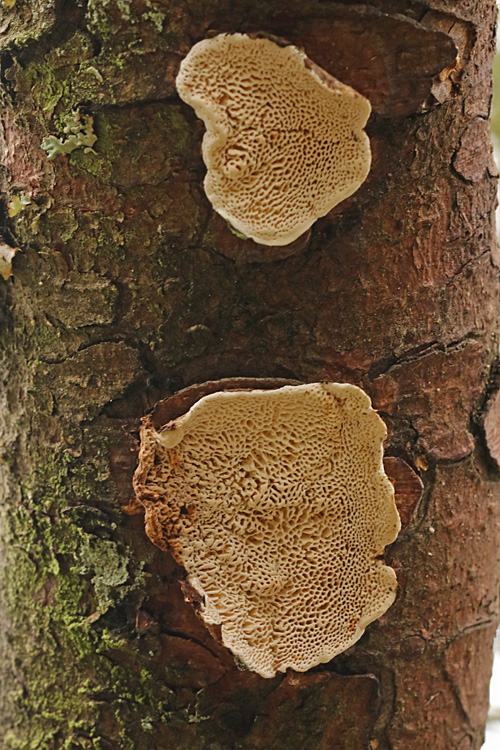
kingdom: Fungi
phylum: Basidiomycota
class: Agaricomycetes
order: Polyporales
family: Fomitopsidaceae
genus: Fomitopsis
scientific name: Fomitopsis
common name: fyrre-skiveporesvamp
